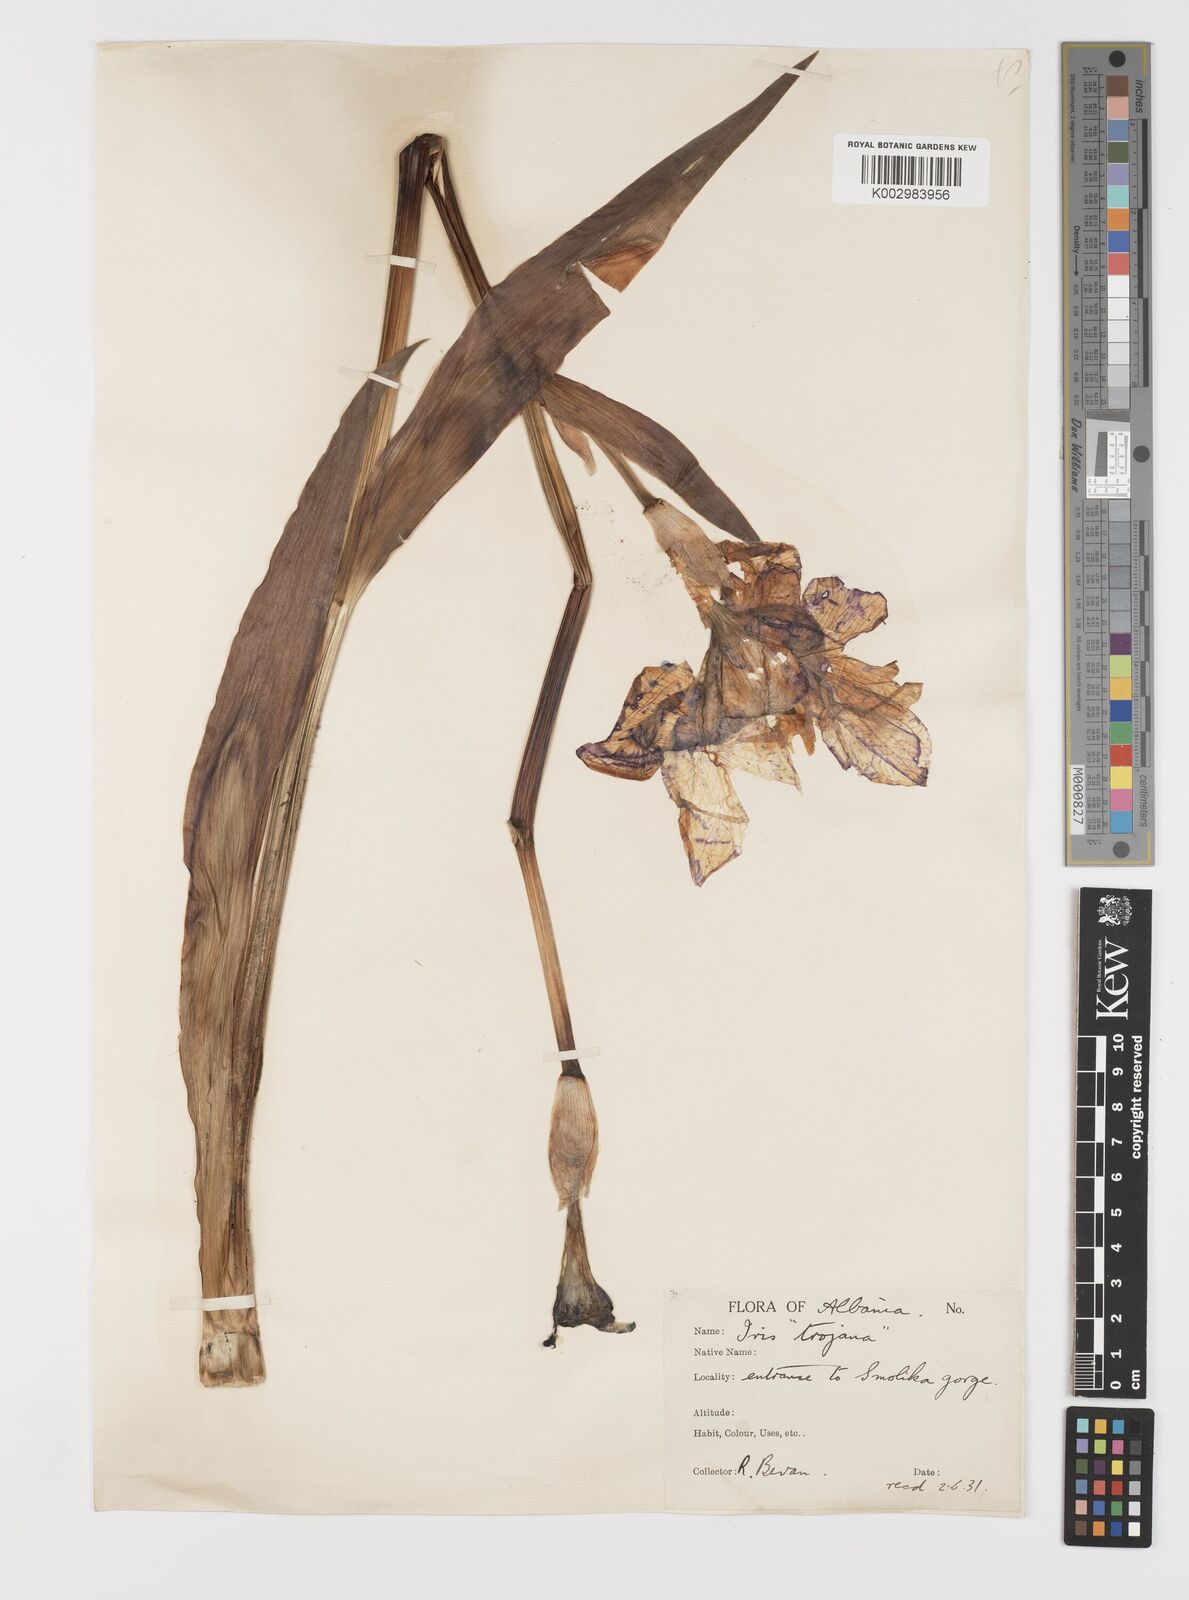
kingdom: Plantae
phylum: Tracheophyta
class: Liliopsida
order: Asparagales
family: Iridaceae
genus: Iris
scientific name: Iris germanica
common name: German iris
